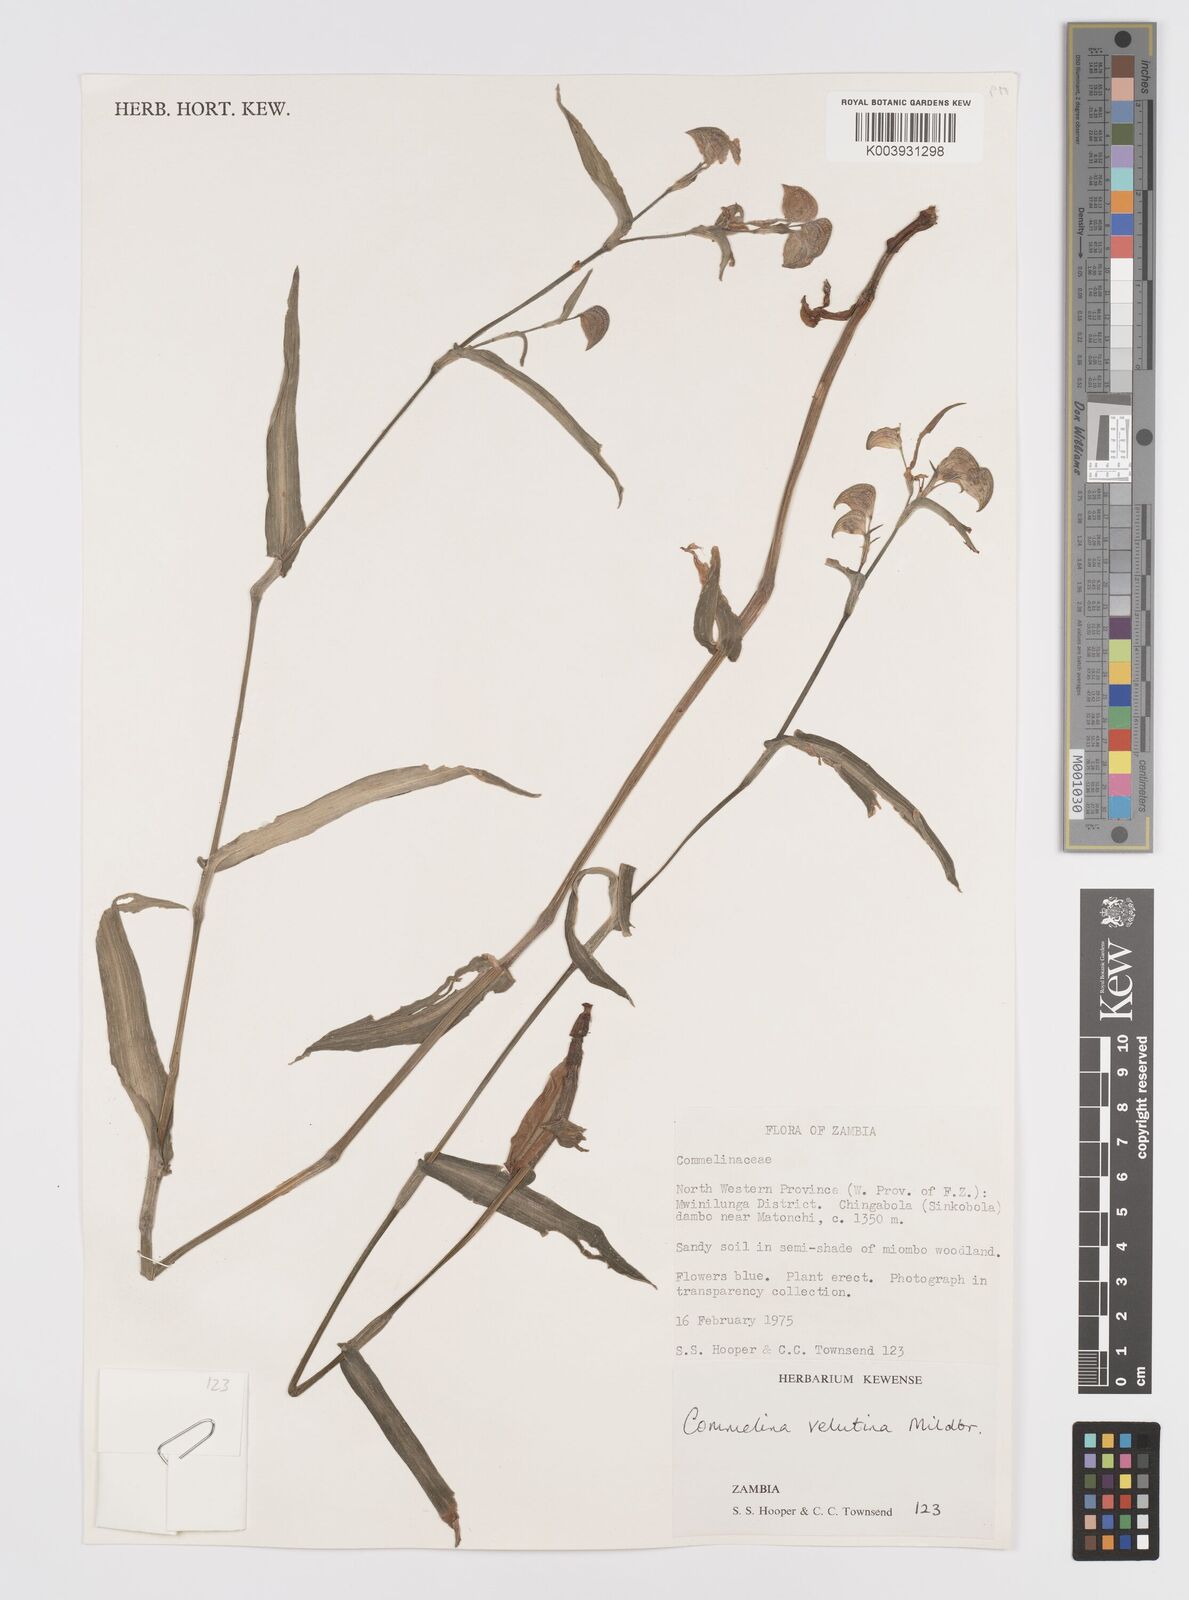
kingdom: Plantae
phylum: Tracheophyta
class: Liliopsida
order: Commelinales
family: Commelinaceae
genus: Commelina
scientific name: Commelina velutina
